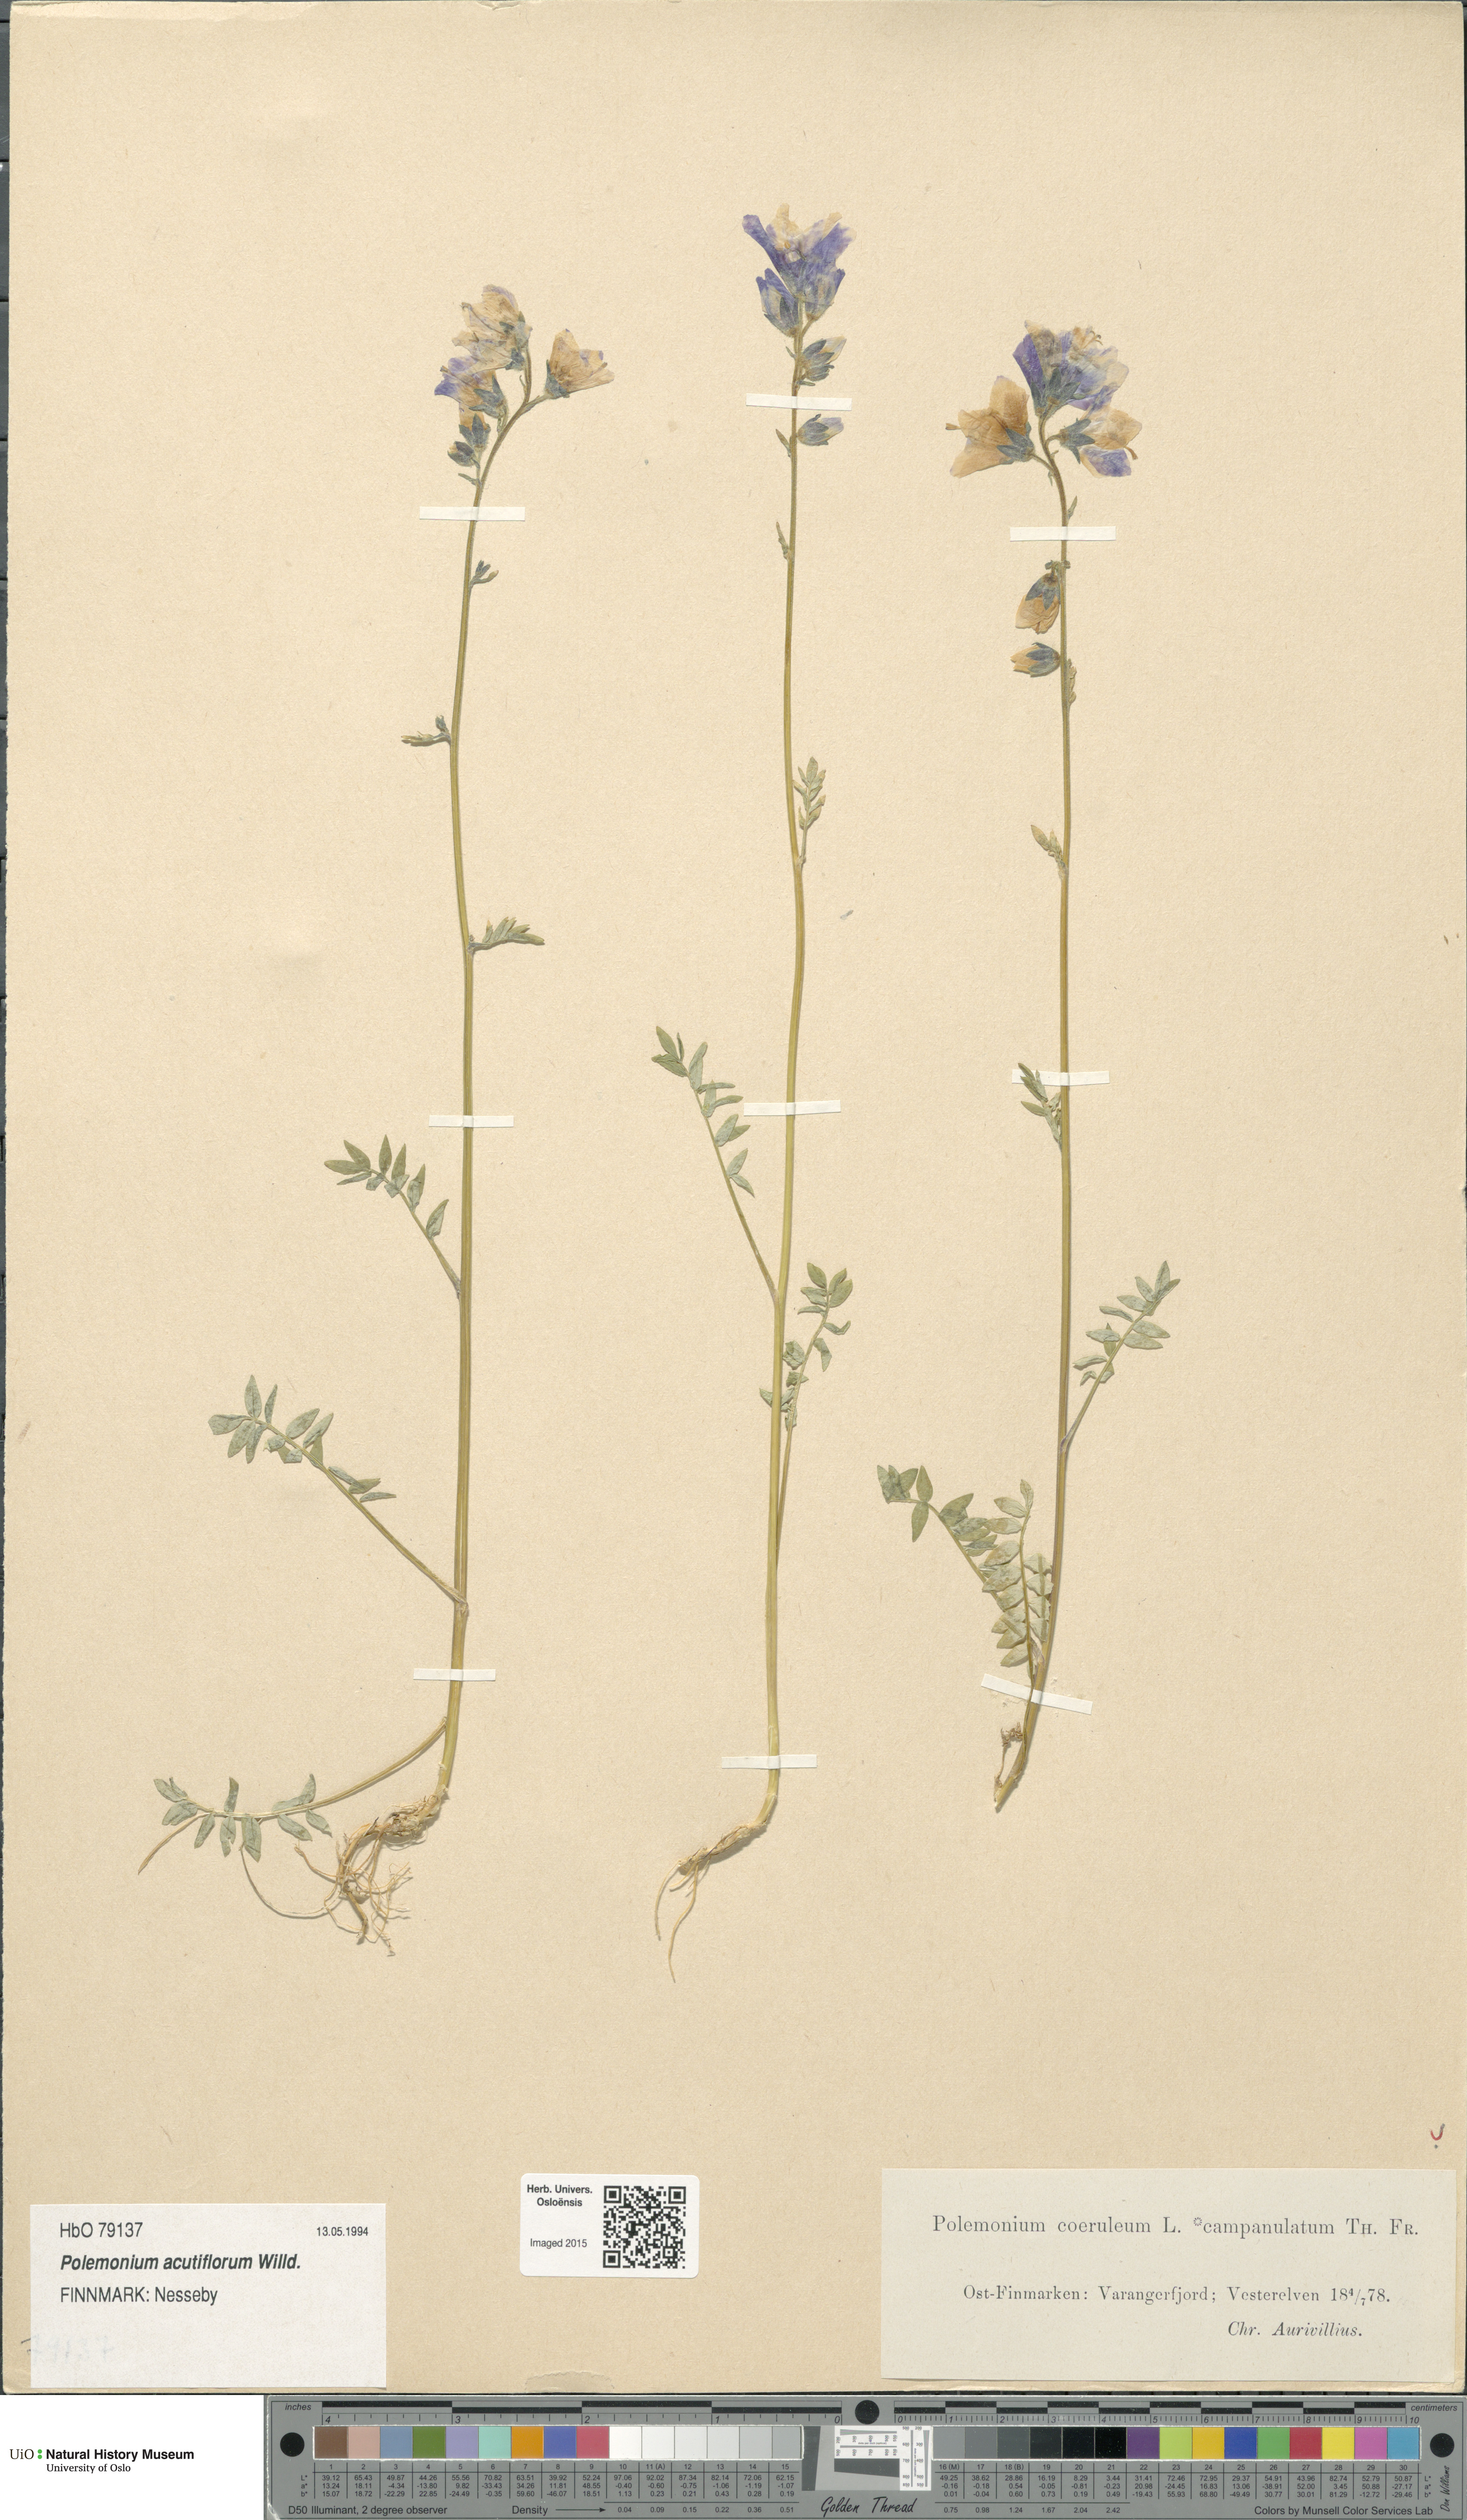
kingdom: Plantae
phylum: Tracheophyta
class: Magnoliopsida
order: Ericales
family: Polemoniaceae
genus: Polemonium
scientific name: Polemonium villosum
